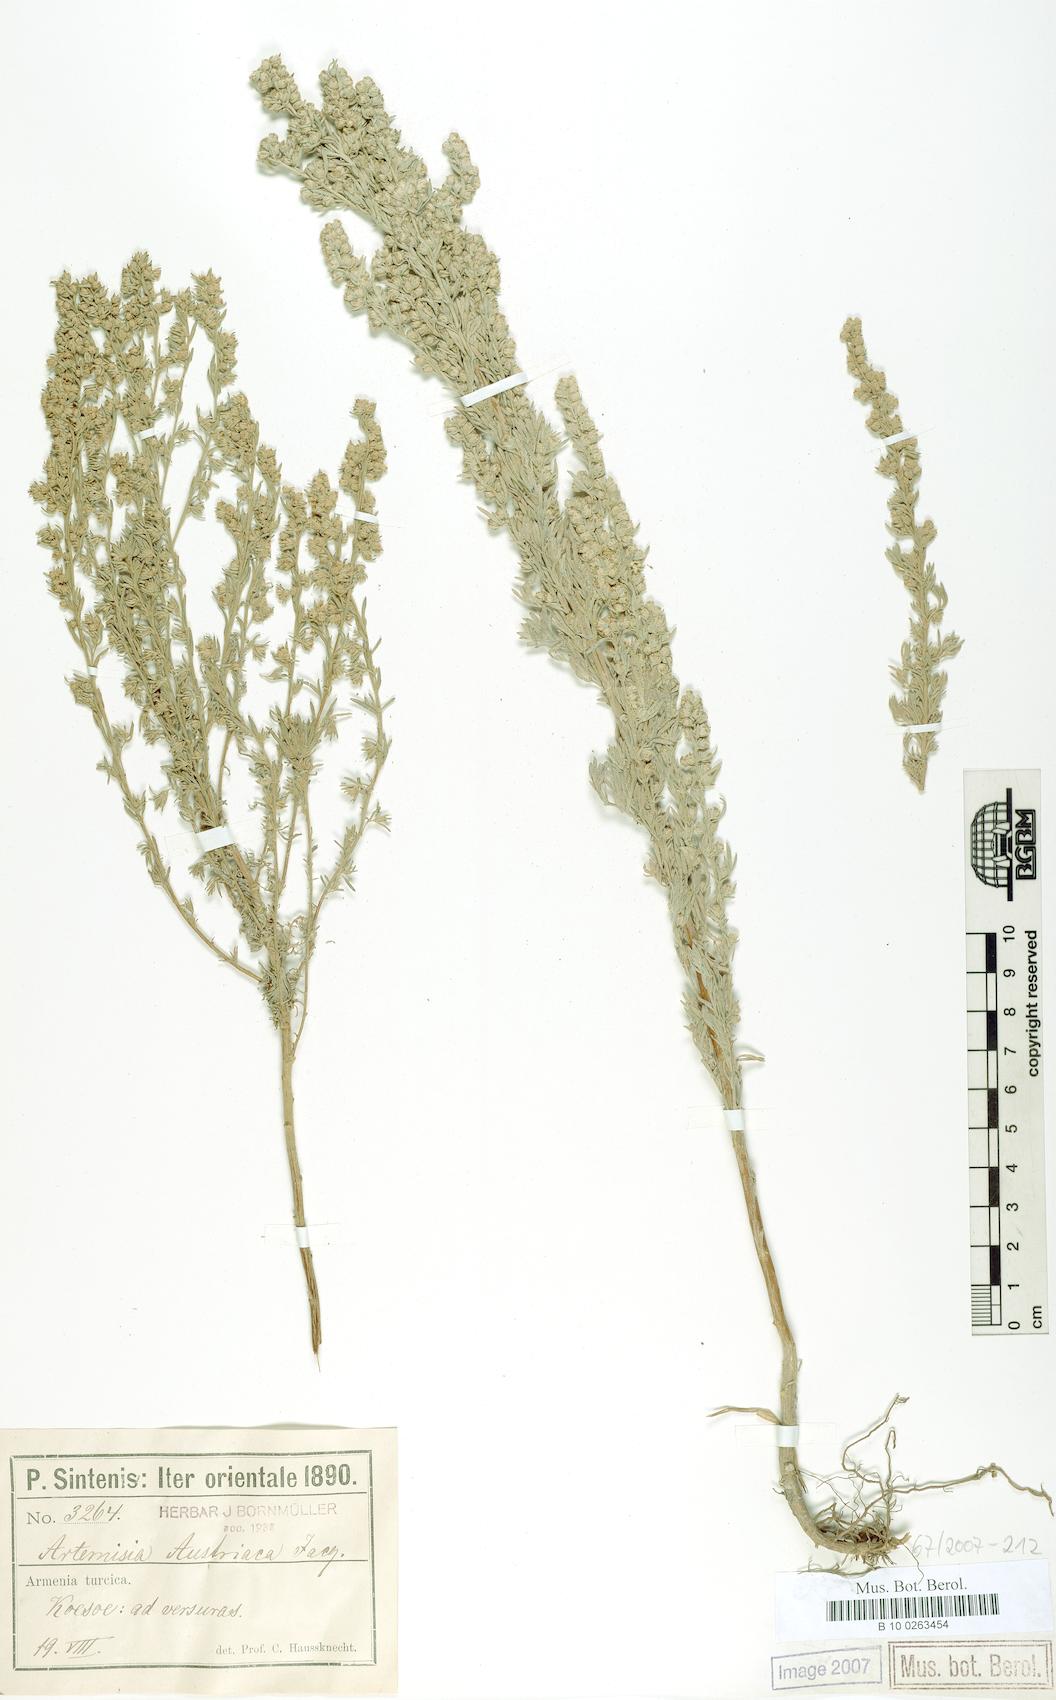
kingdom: Plantae
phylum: Tracheophyta
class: Magnoliopsida
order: Asterales
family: Asteraceae
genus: Artemisia
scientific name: Artemisia austriaca
